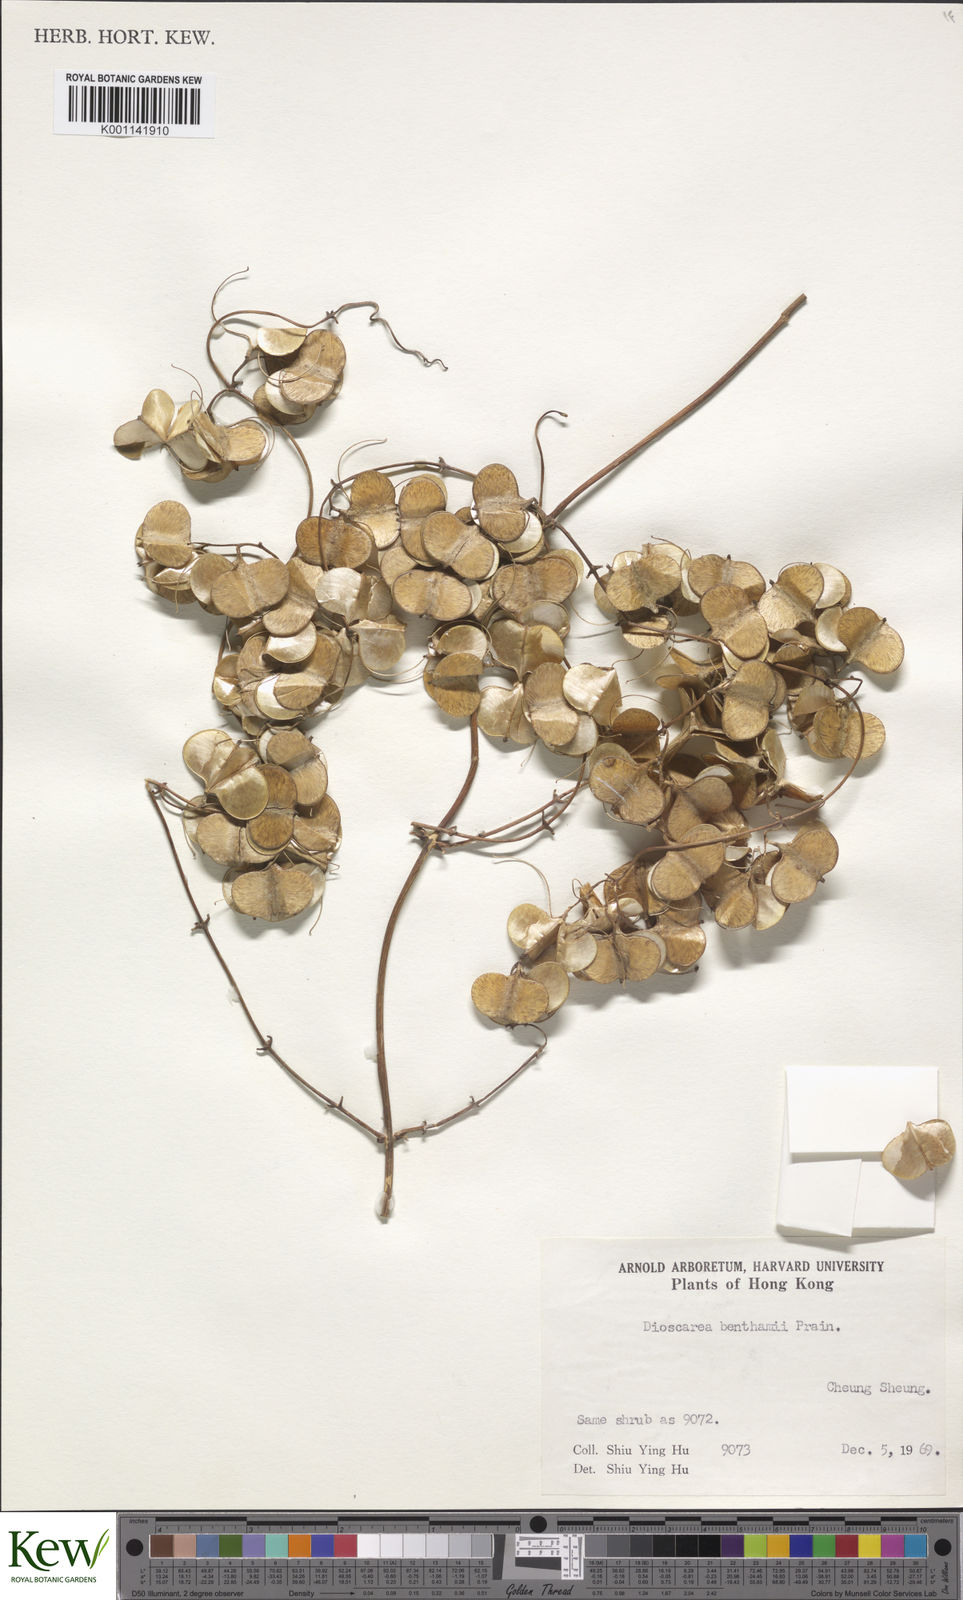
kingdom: Plantae
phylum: Tracheophyta
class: Liliopsida
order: Dioscoreales
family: Dioscoreaceae
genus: Dioscorea
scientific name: Dioscorea benthamii
